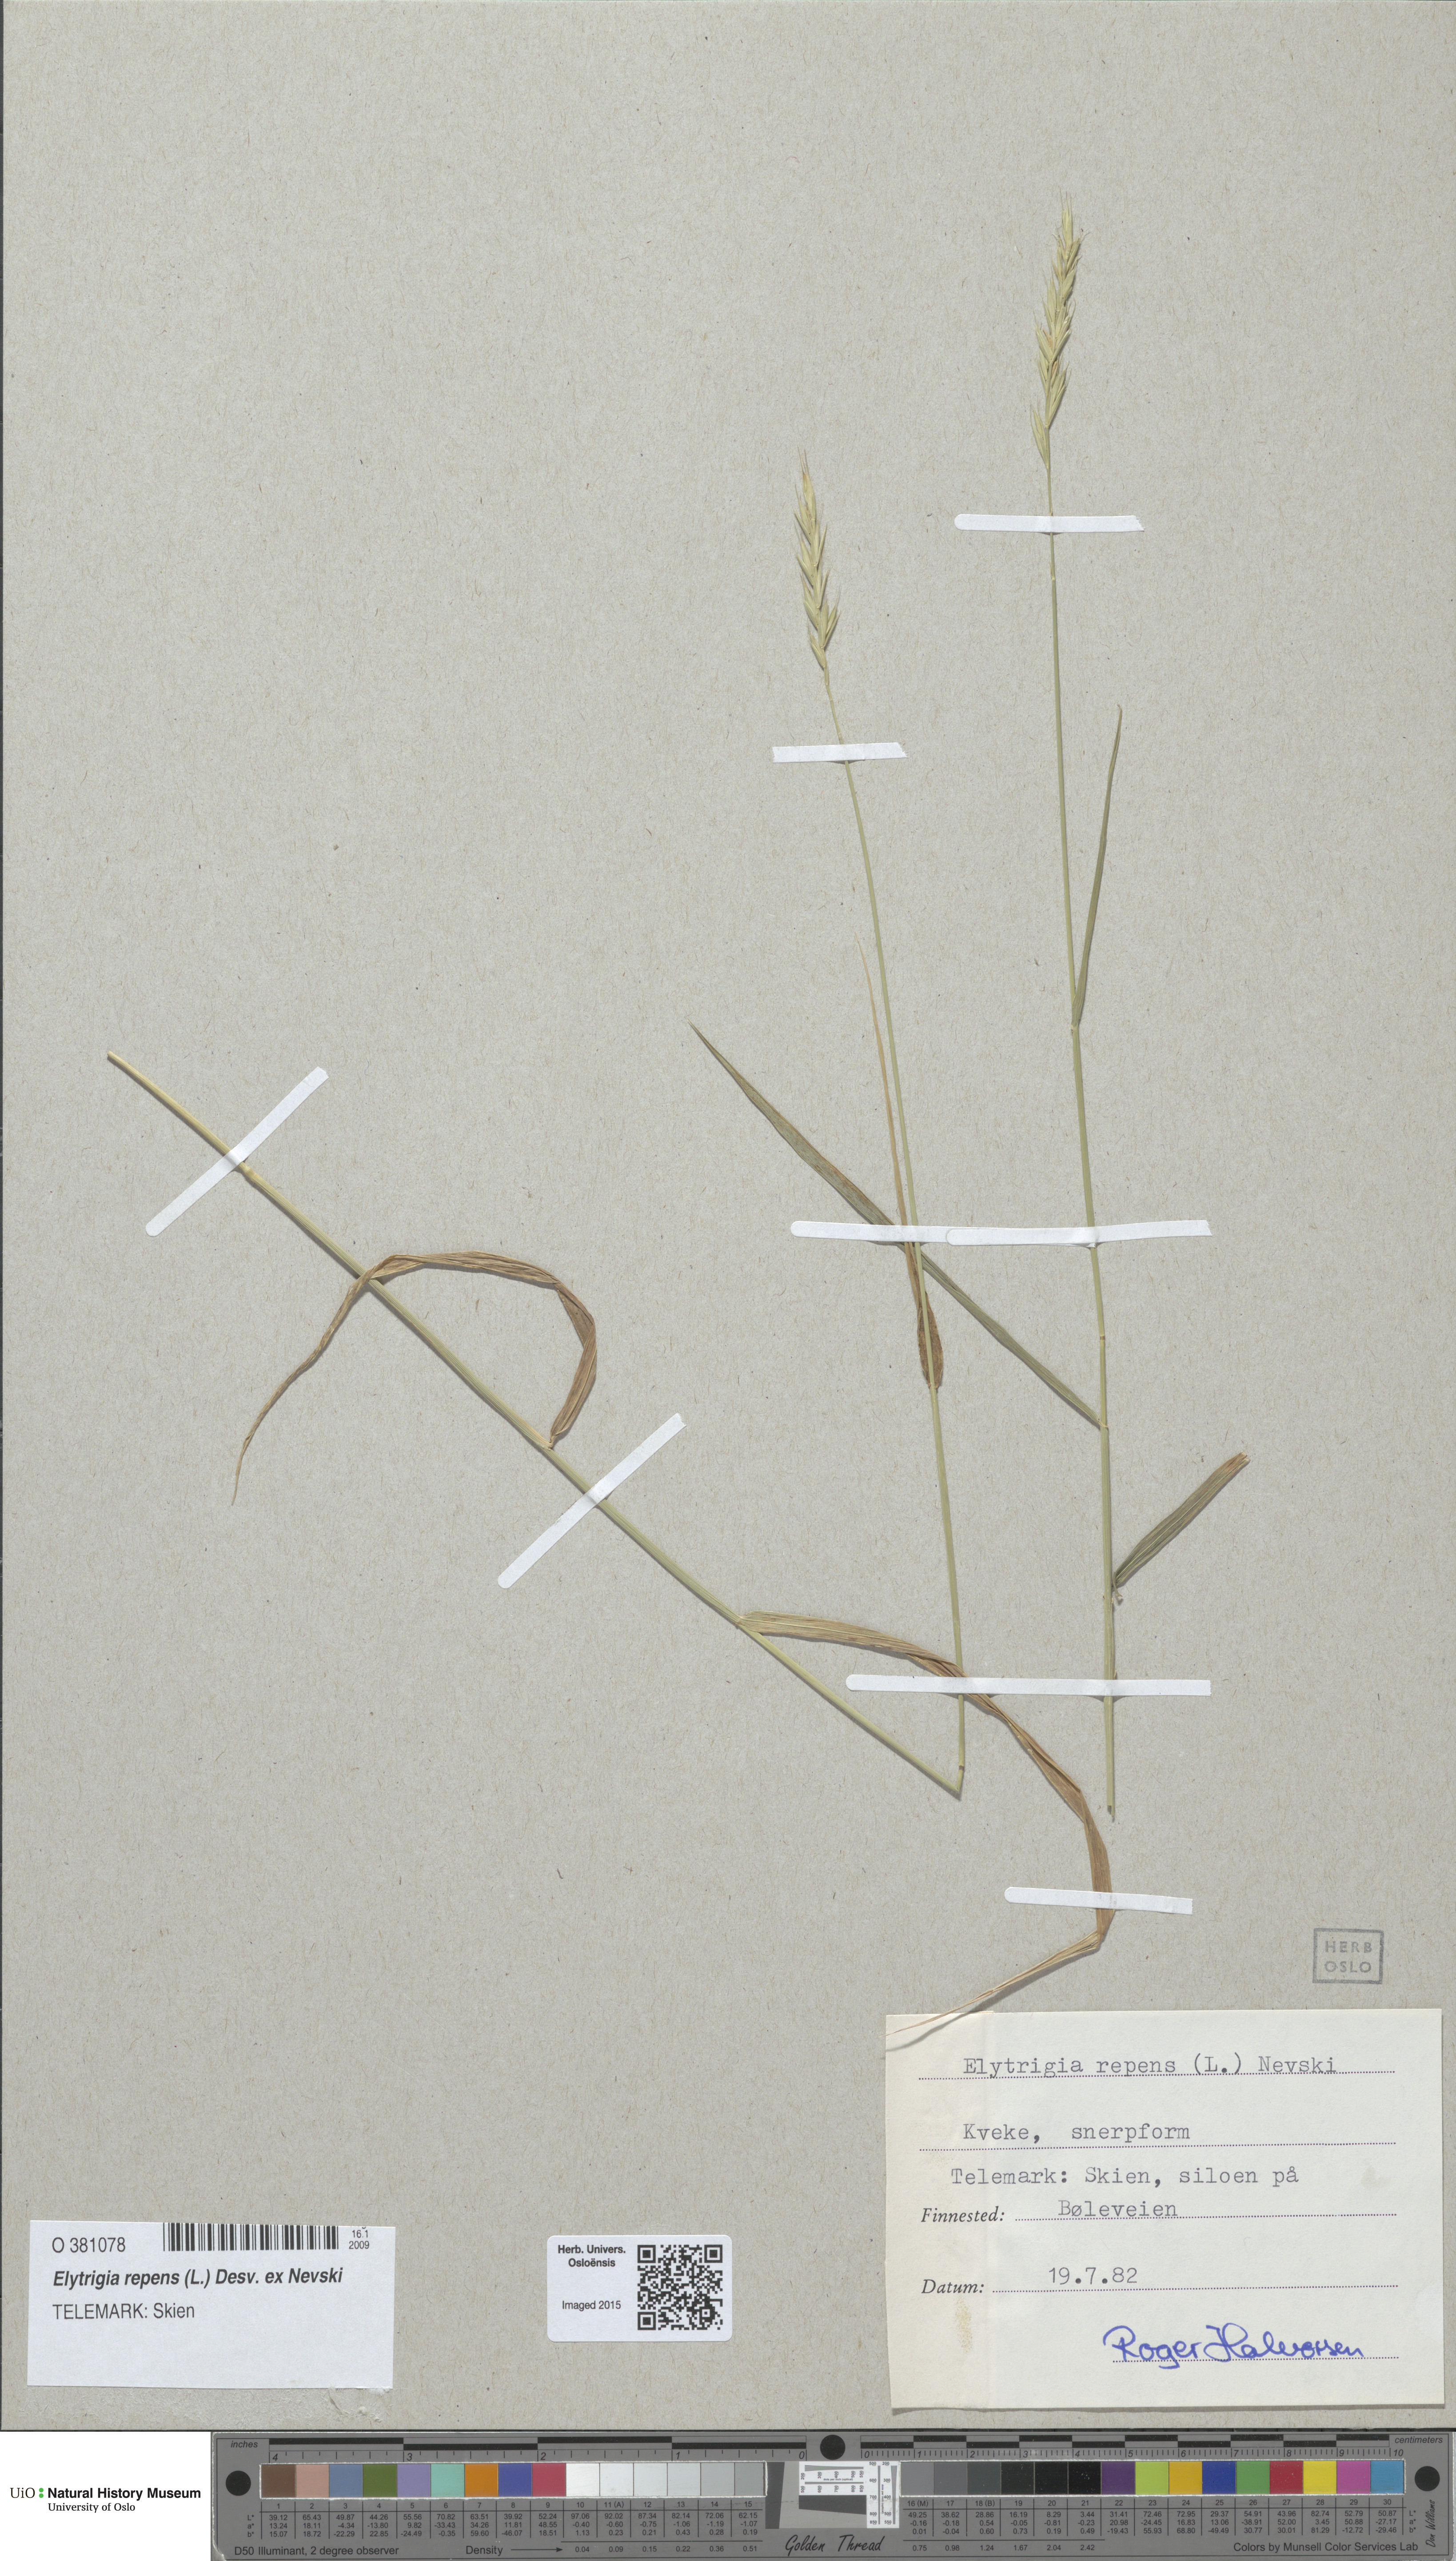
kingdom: Plantae
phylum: Tracheophyta
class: Liliopsida
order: Poales
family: Poaceae
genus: Elymus
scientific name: Elymus repens
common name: Quackgrass
